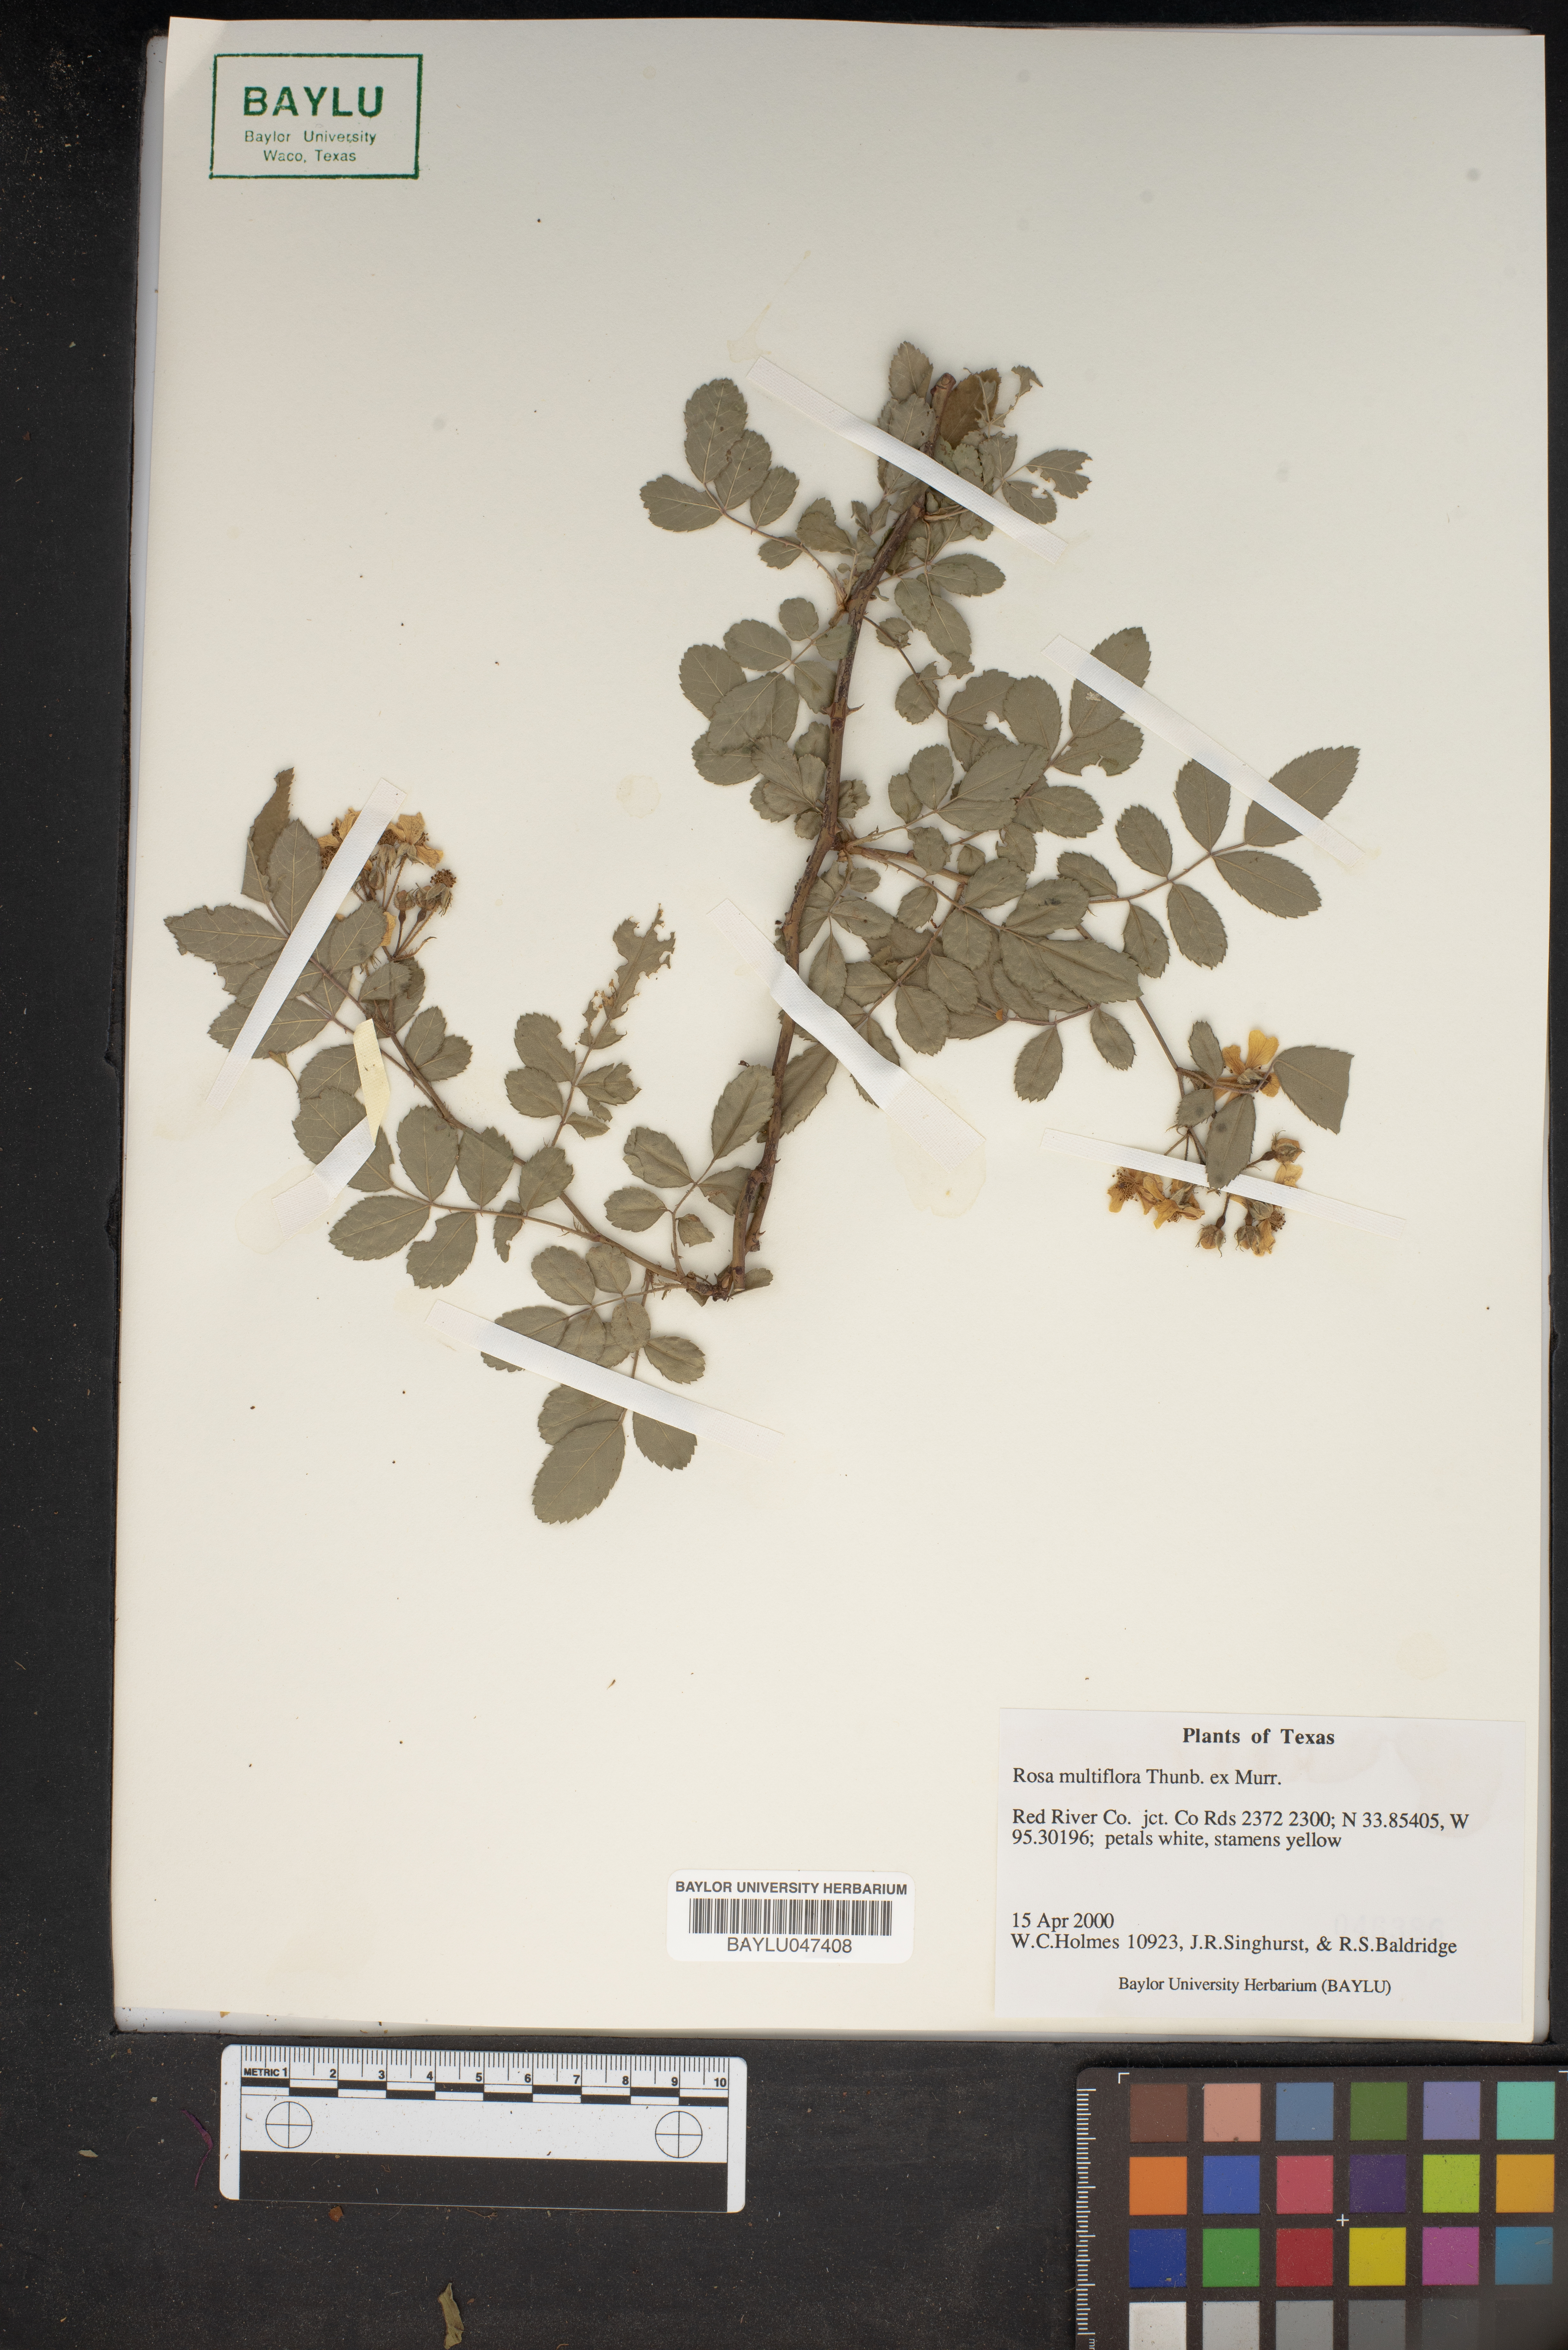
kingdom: Plantae
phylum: Tracheophyta
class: Magnoliopsida
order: Rosales
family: Rosaceae
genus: Rosa
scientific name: Rosa multiflora
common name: Multiflora rose
